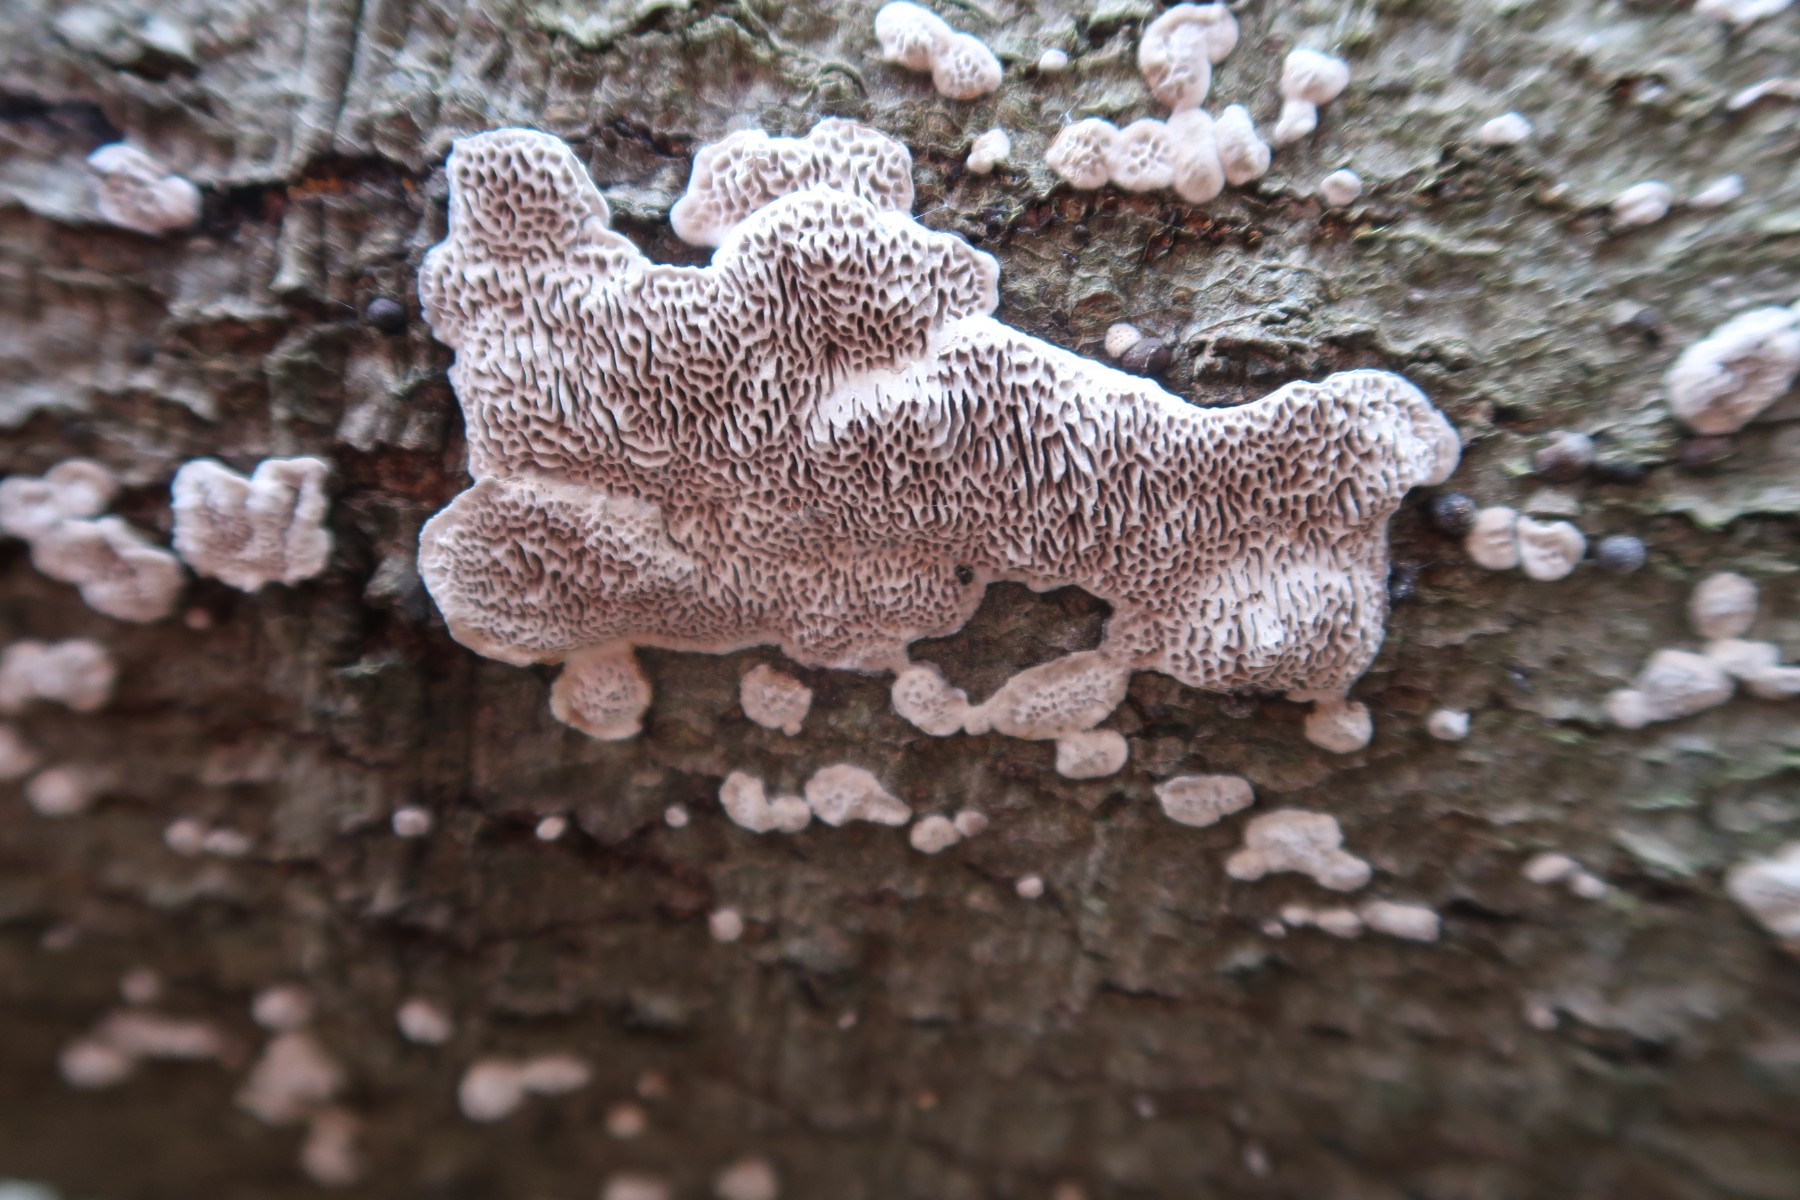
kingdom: Fungi
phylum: Basidiomycota
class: Agaricomycetes
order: Polyporales
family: Polyporaceae
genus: Podofomes
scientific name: Podofomes mollis
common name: blød begporesvamp
